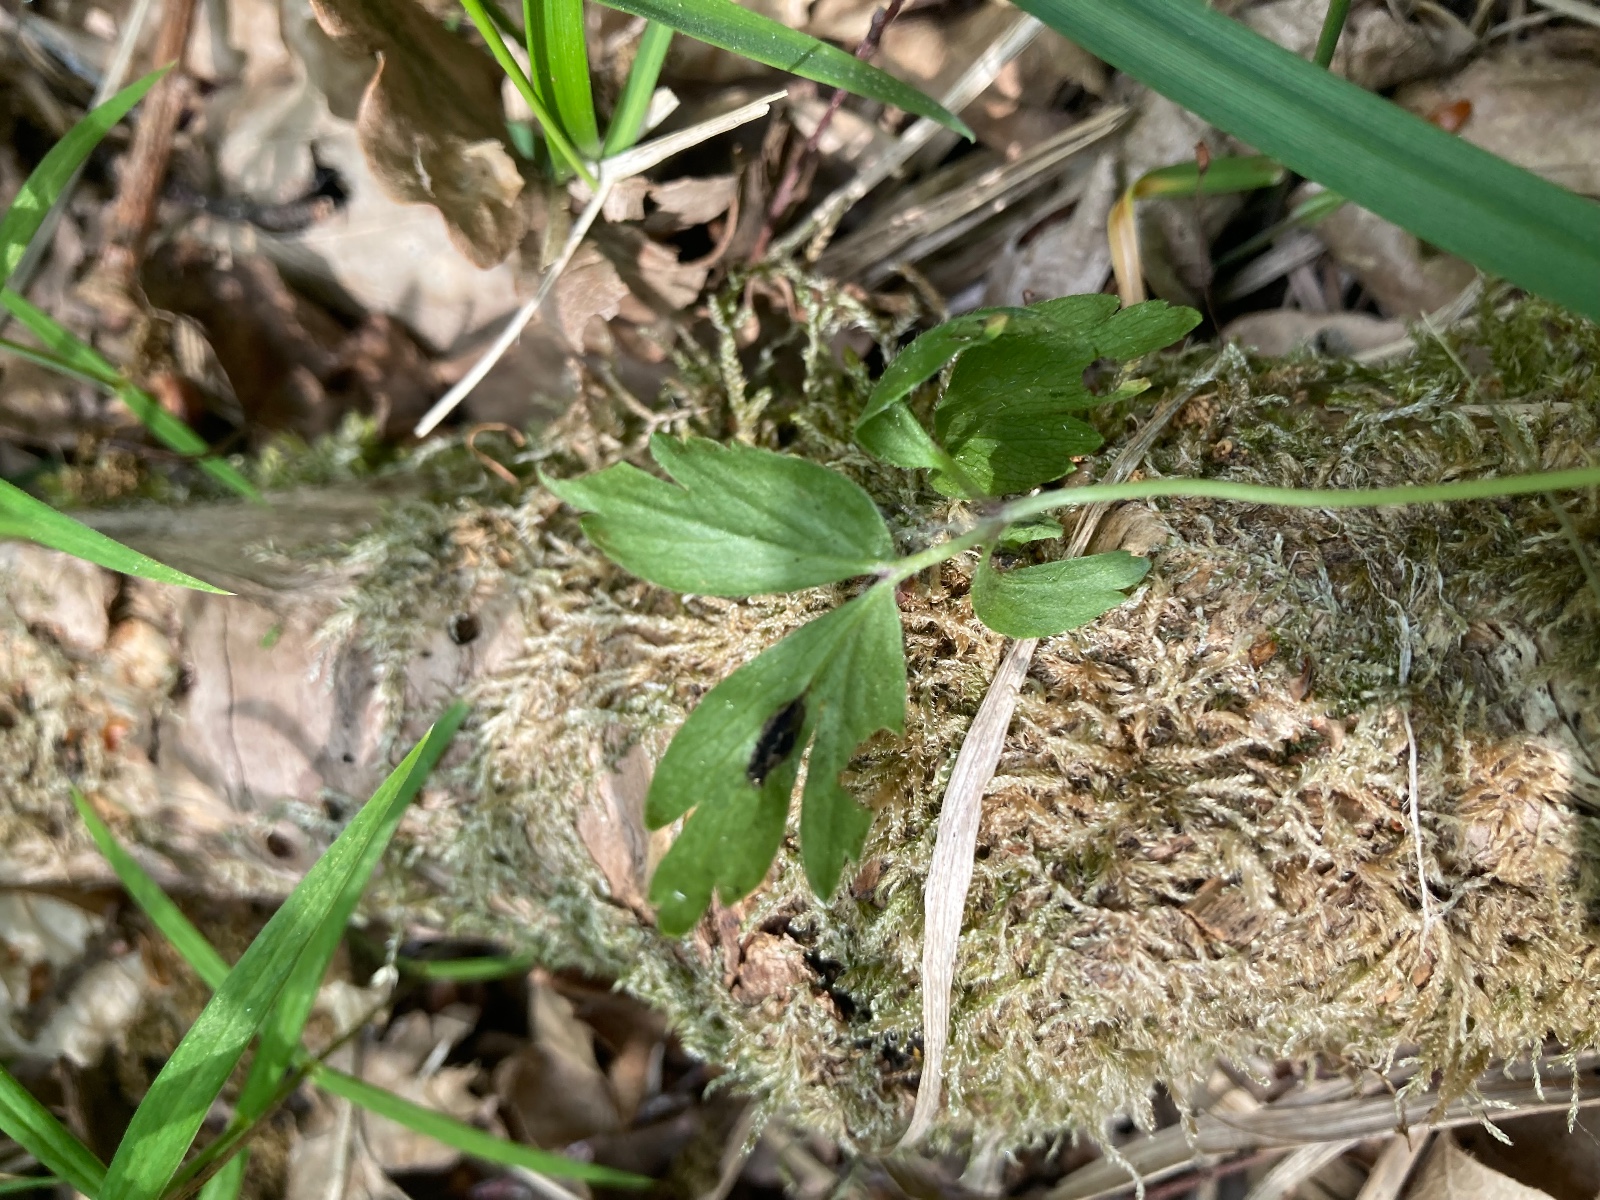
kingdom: Fungi
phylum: Basidiomycota
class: Ustilaginomycetes
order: Urocystidales
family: Urocystidaceae
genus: Urocystis
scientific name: Urocystis anemones
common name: anemone-brand
